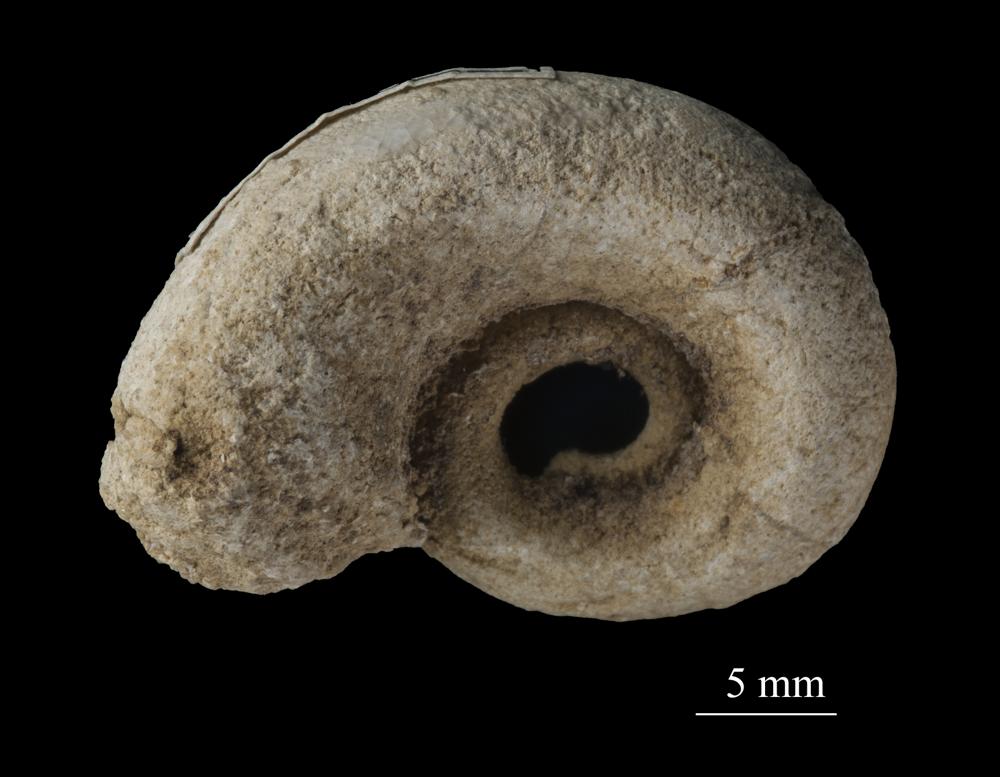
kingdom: Animalia
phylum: Mollusca
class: Gastropoda
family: Euomphalidae
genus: Euomphalus
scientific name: Euomphalus
